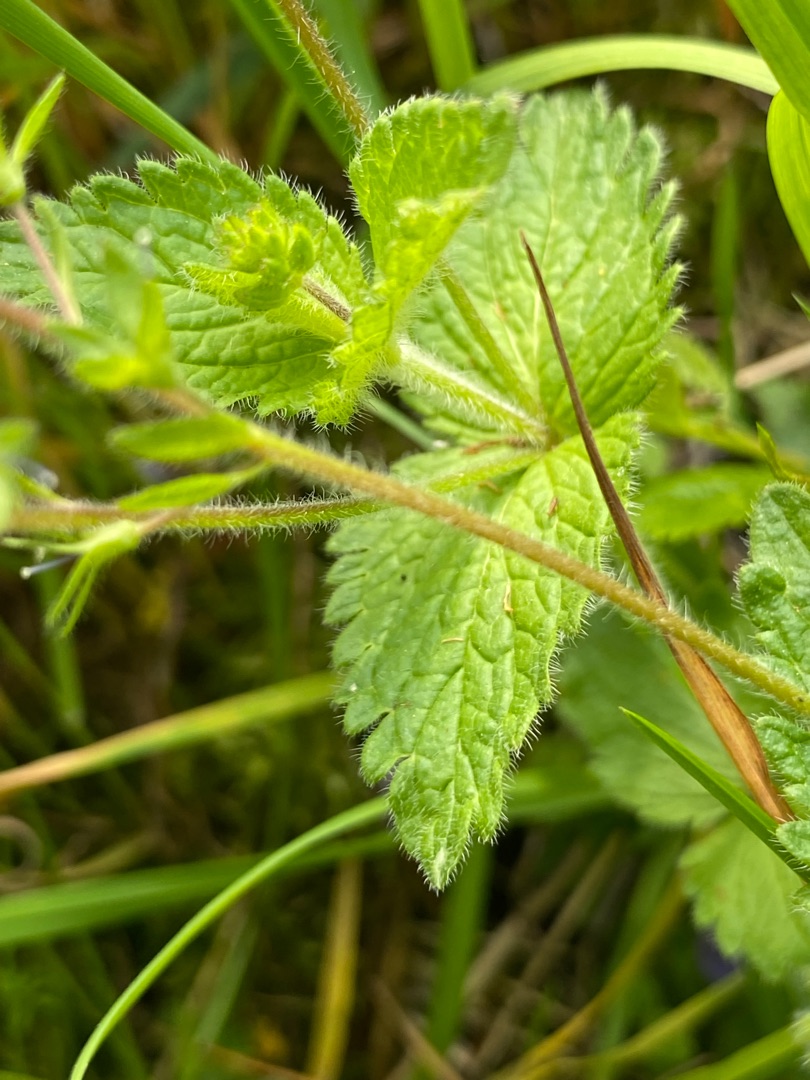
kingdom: Plantae
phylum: Tracheophyta
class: Magnoliopsida
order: Lamiales
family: Plantaginaceae
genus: Veronica
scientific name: Veronica chamaedrys
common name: Tveskægget ærenpris
